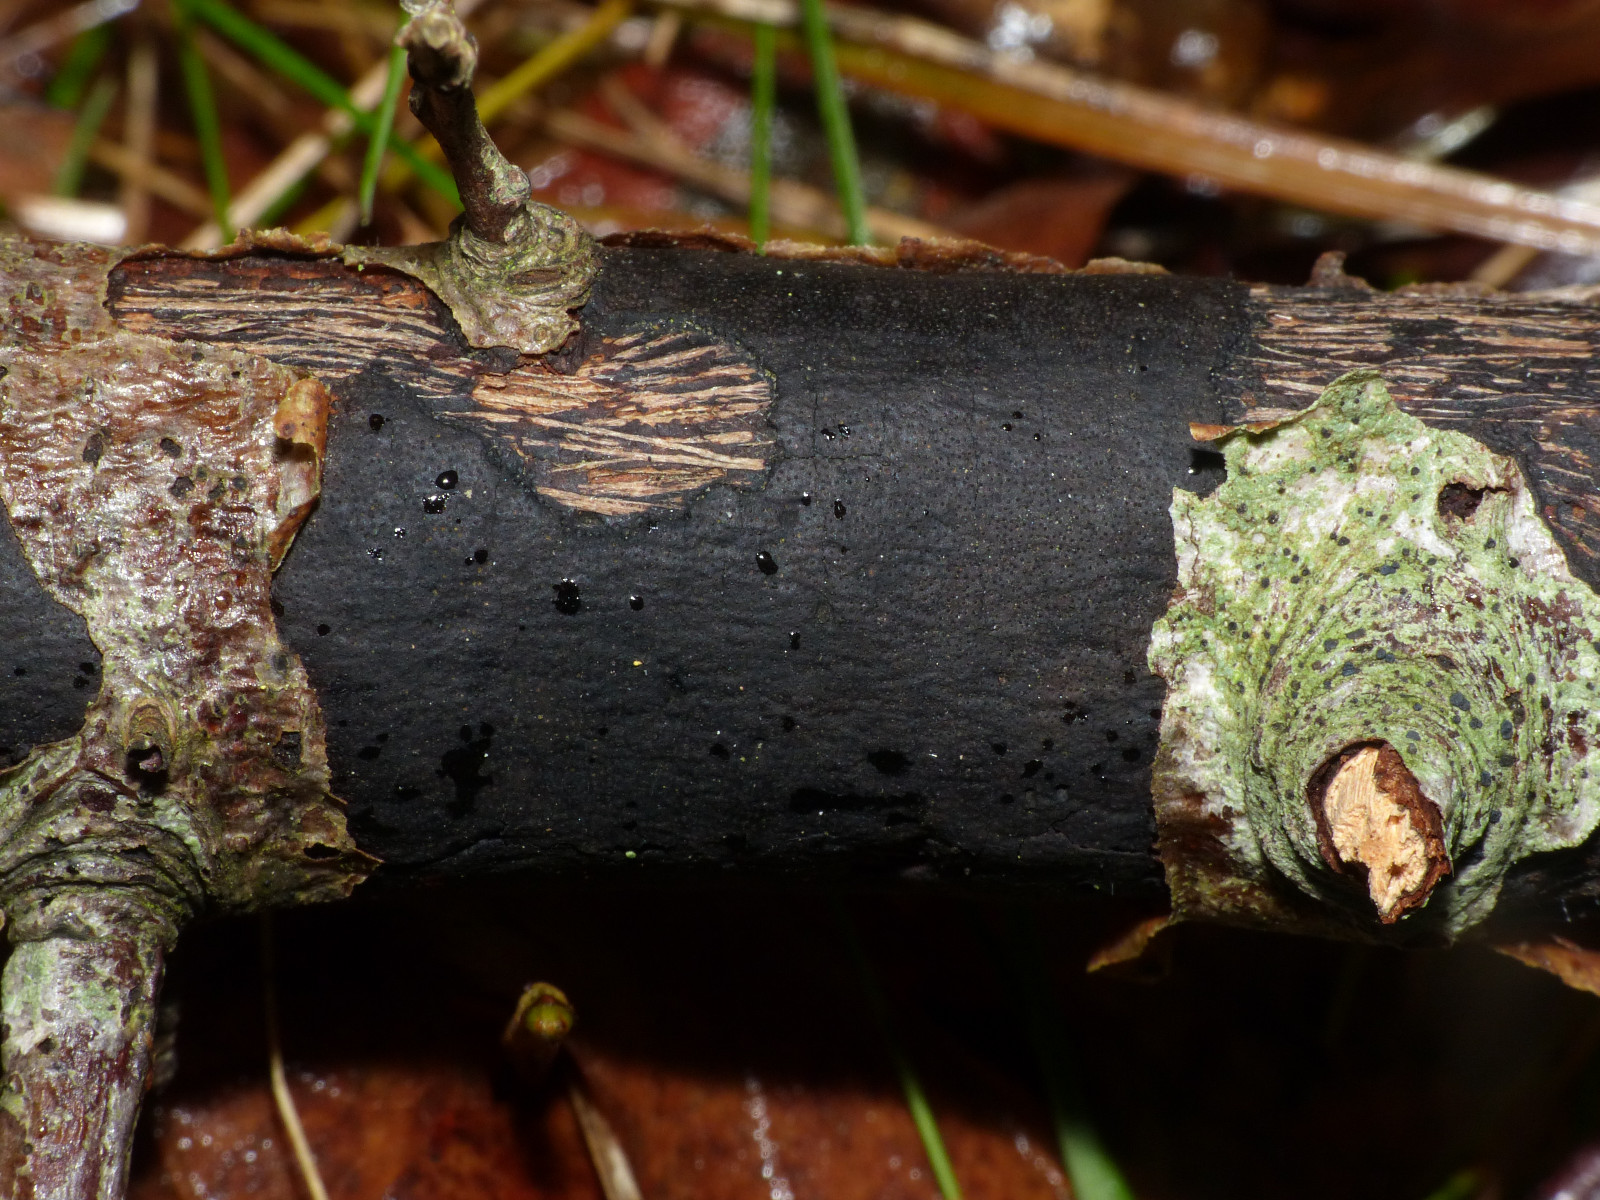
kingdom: Fungi
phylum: Ascomycota
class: Sordariomycetes
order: Xylariales
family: Diatrypaceae
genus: Diatrype
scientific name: Diatrype
